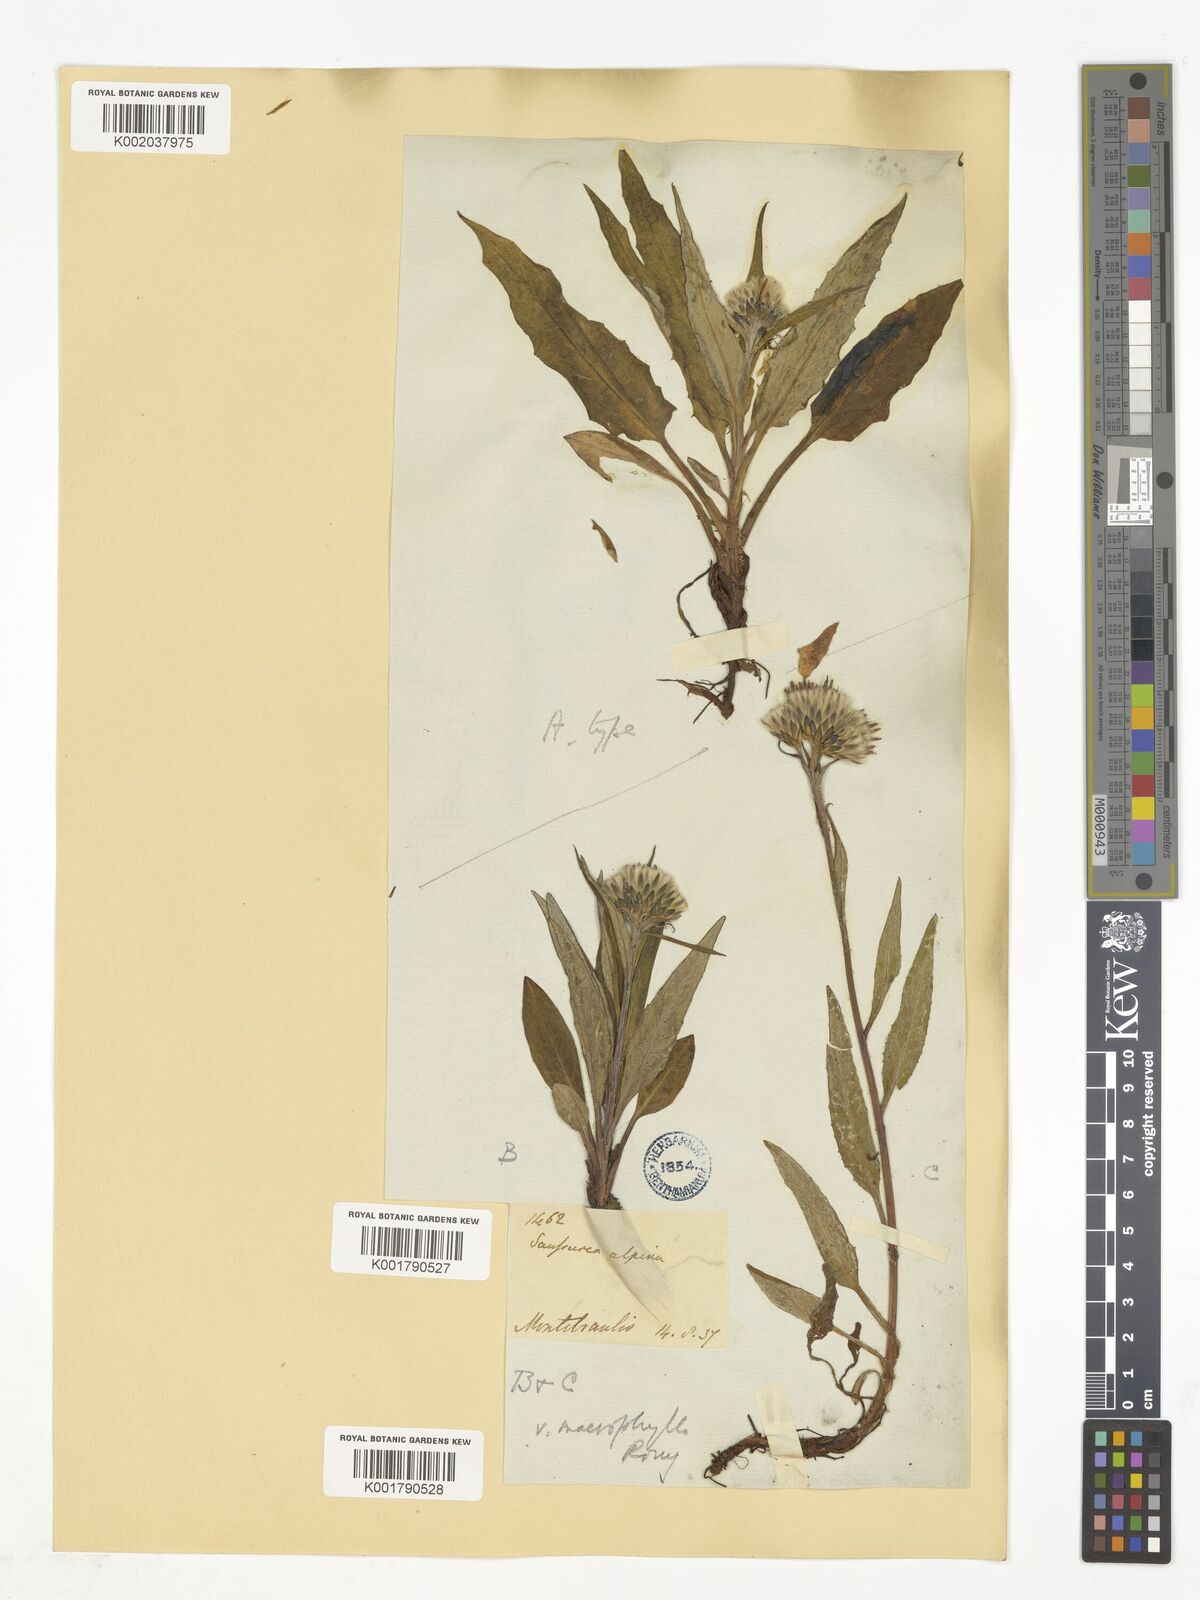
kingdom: Plantae
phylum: Tracheophyta
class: Magnoliopsida
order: Asterales
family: Asteraceae
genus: Saussurea
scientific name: Saussurea alpina
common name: Alpine saw-wort
